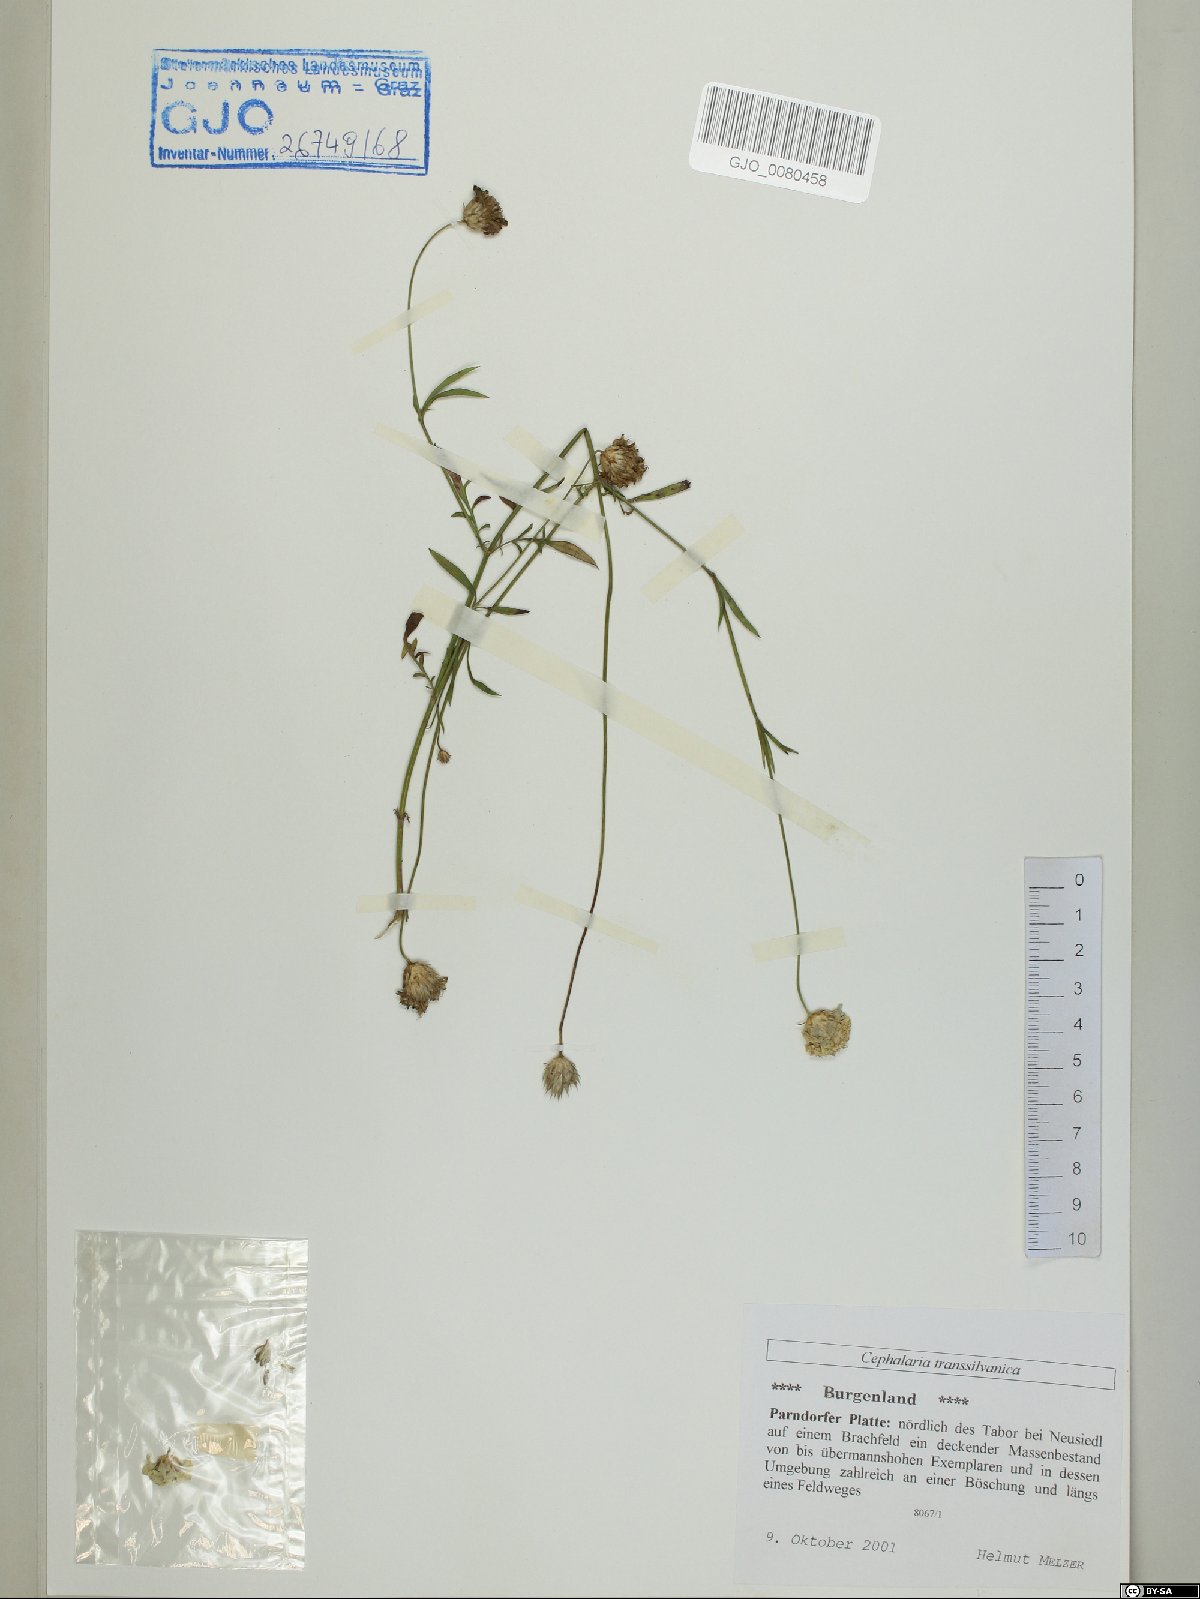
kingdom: Plantae
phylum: Tracheophyta
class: Magnoliopsida
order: Dipsacales
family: Caprifoliaceae
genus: Cephalaria
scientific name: Cephalaria transsylvanica
